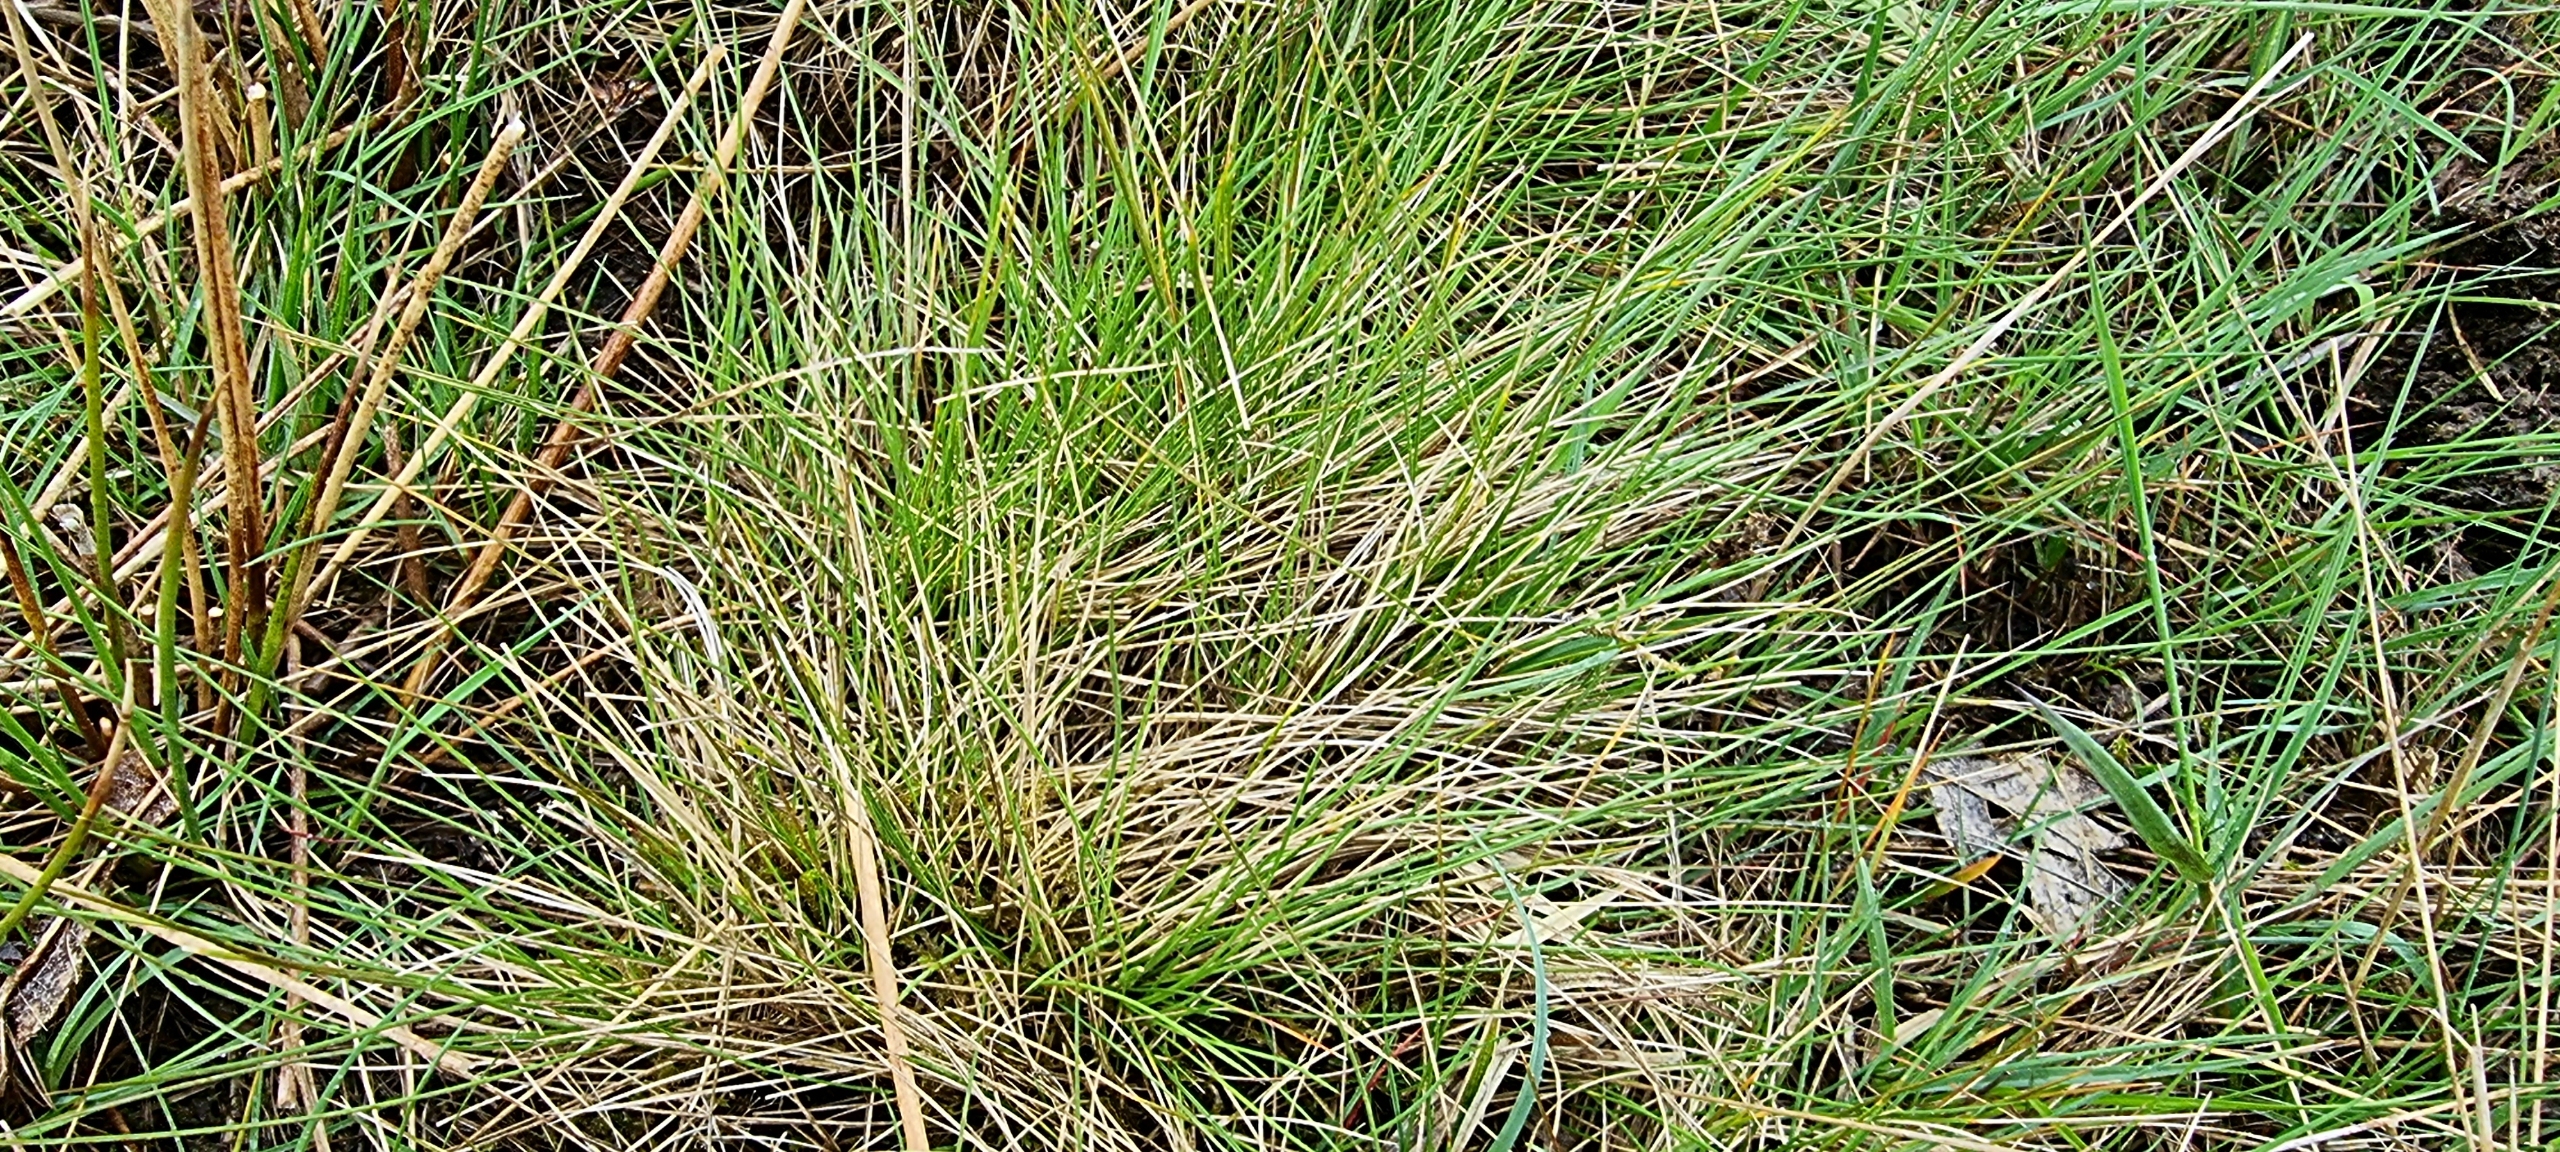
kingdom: Plantae
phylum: Tracheophyta
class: Liliopsida
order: Poales
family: Poaceae
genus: Nardus
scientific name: Nardus stricta
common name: Katteskæg
